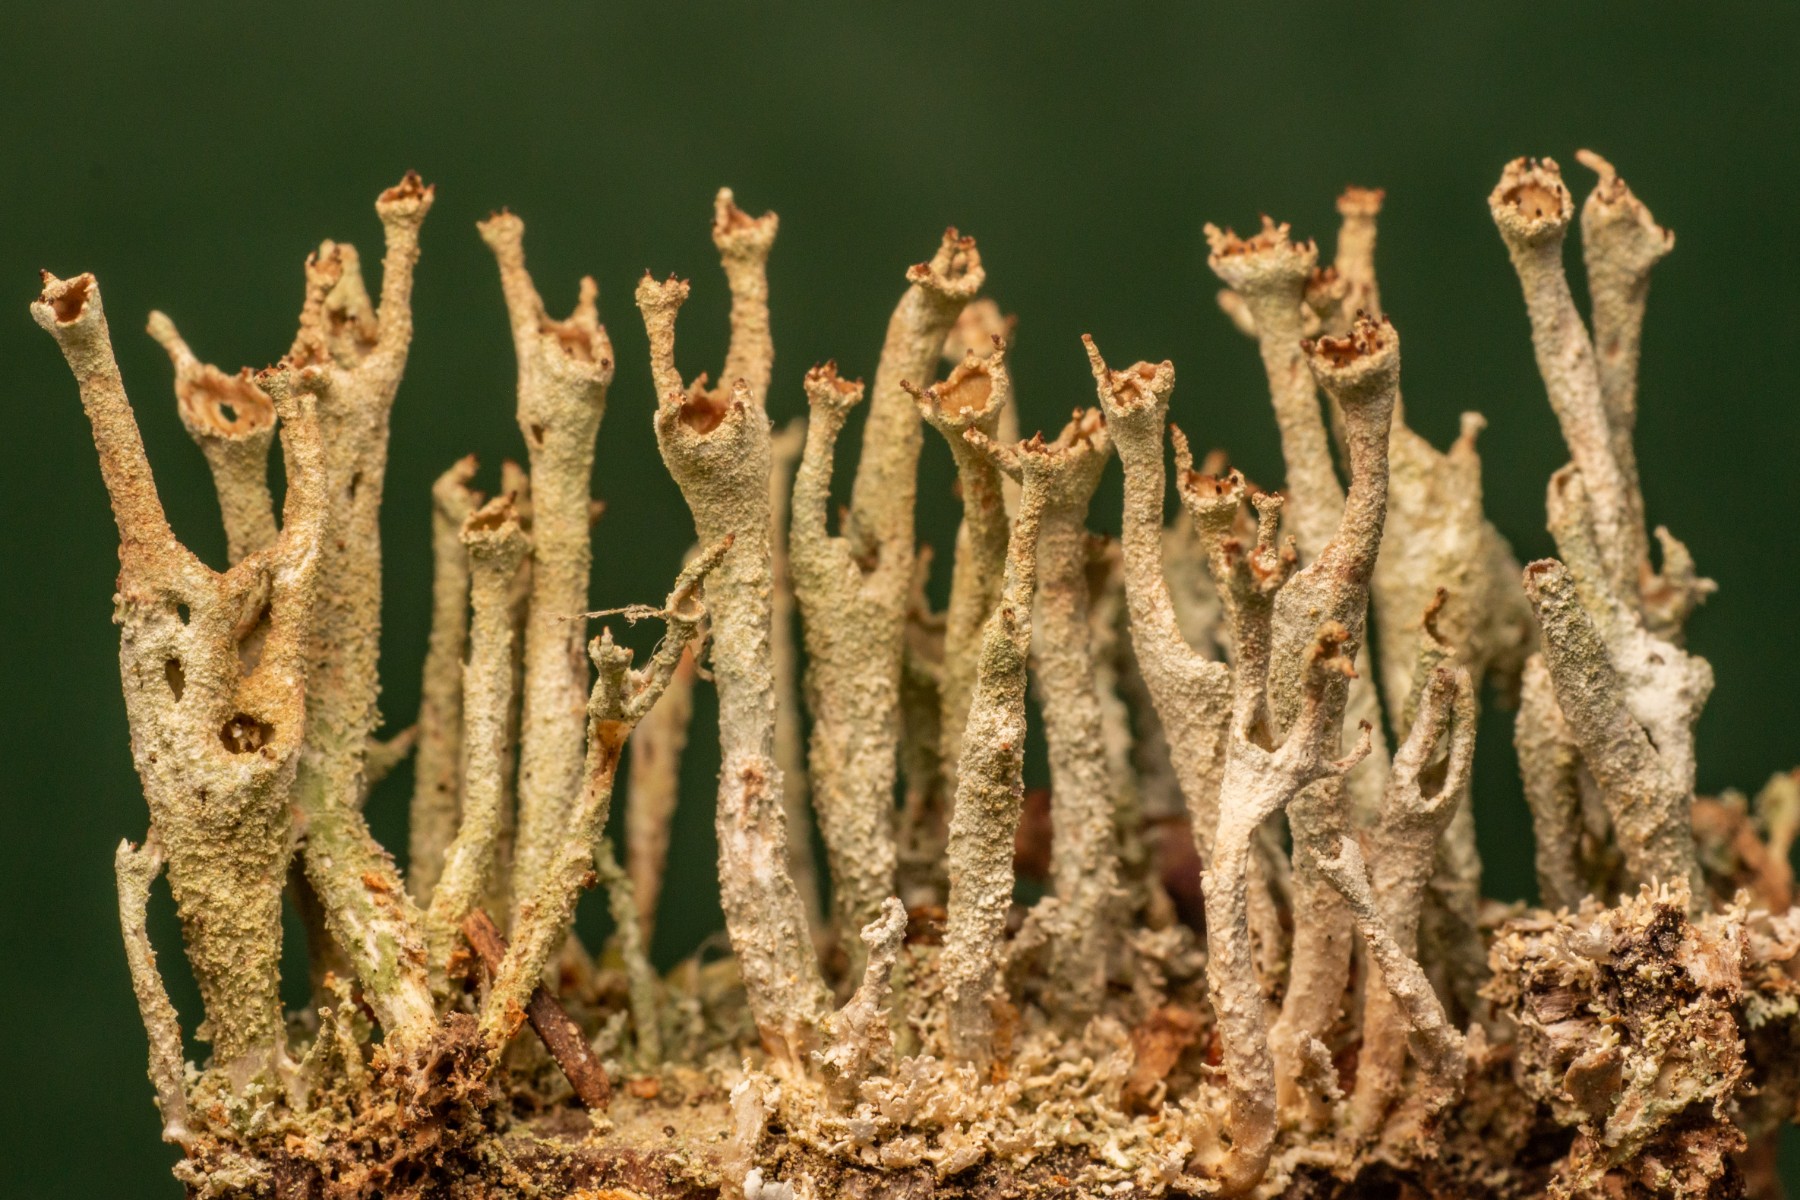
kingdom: Fungi
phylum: Ascomycota
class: Lecanoromycetes
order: Lecanorales
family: Cladoniaceae
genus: Cladonia
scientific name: Cladonia cenotea
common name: pudret bægerlav
